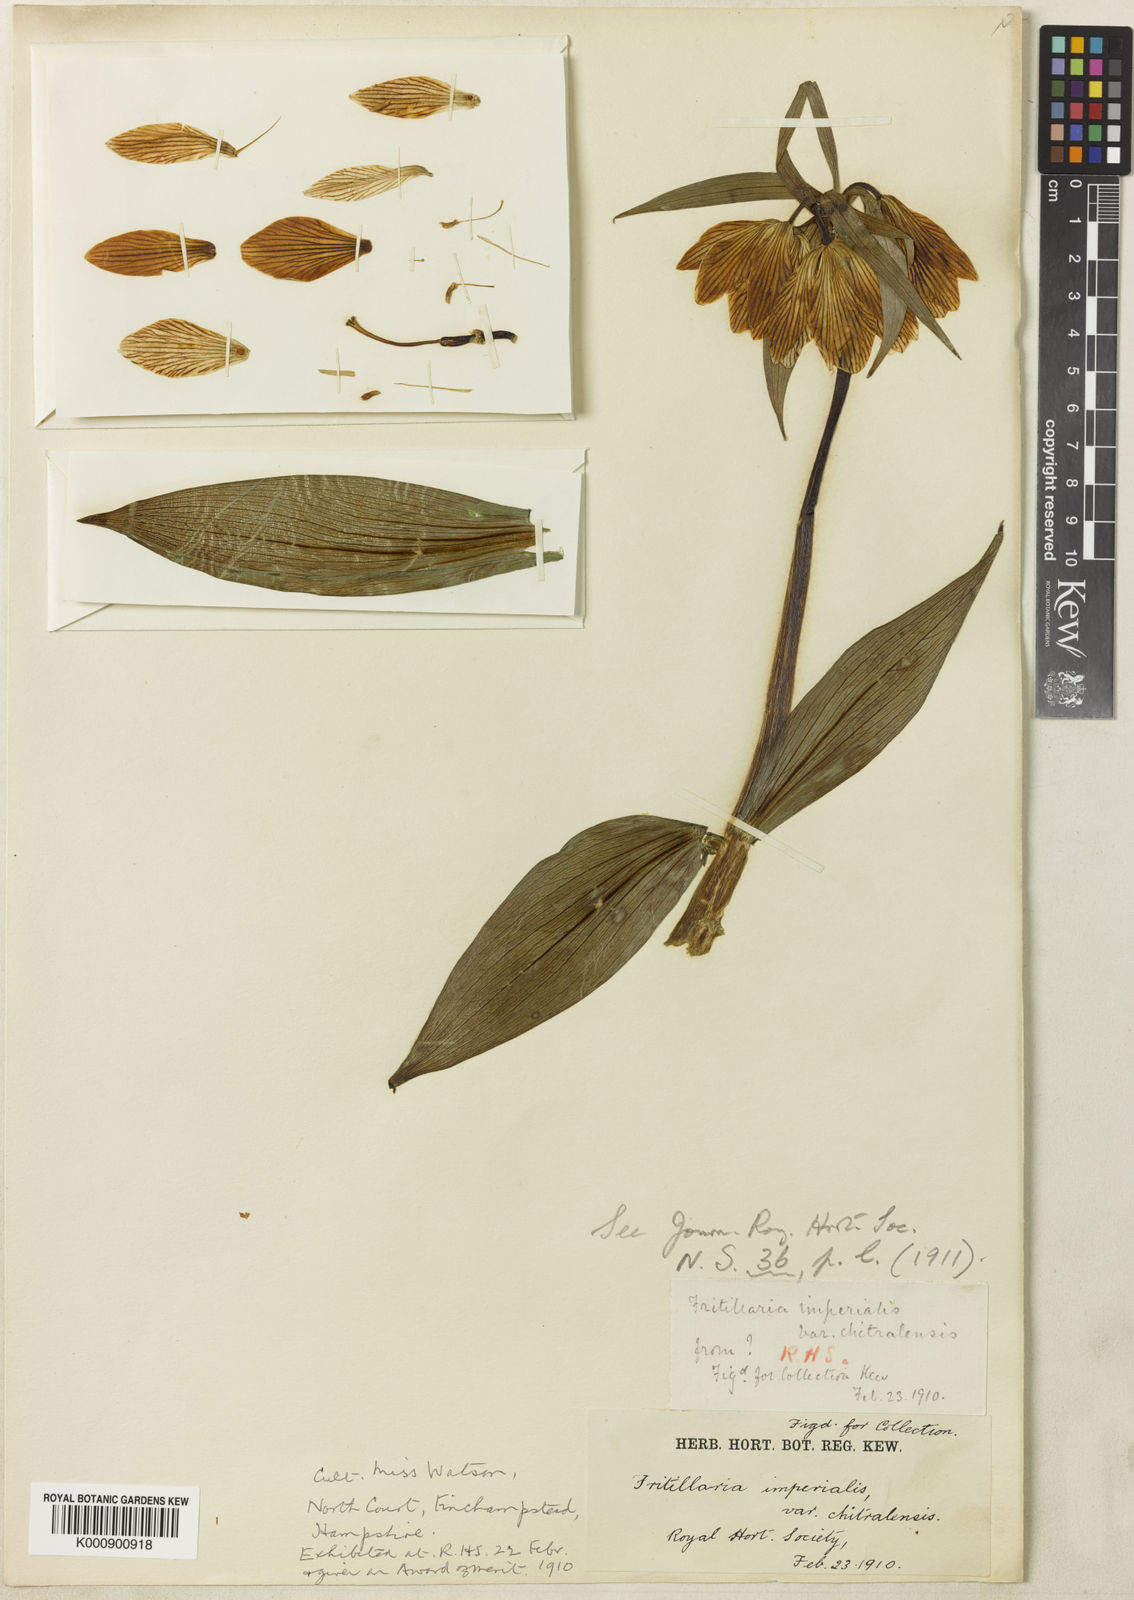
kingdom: Plantae
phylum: Tracheophyta
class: Liliopsida
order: Liliales
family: Liliaceae
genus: Fritillaria
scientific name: Fritillaria imperialis
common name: Imperial fritillary
